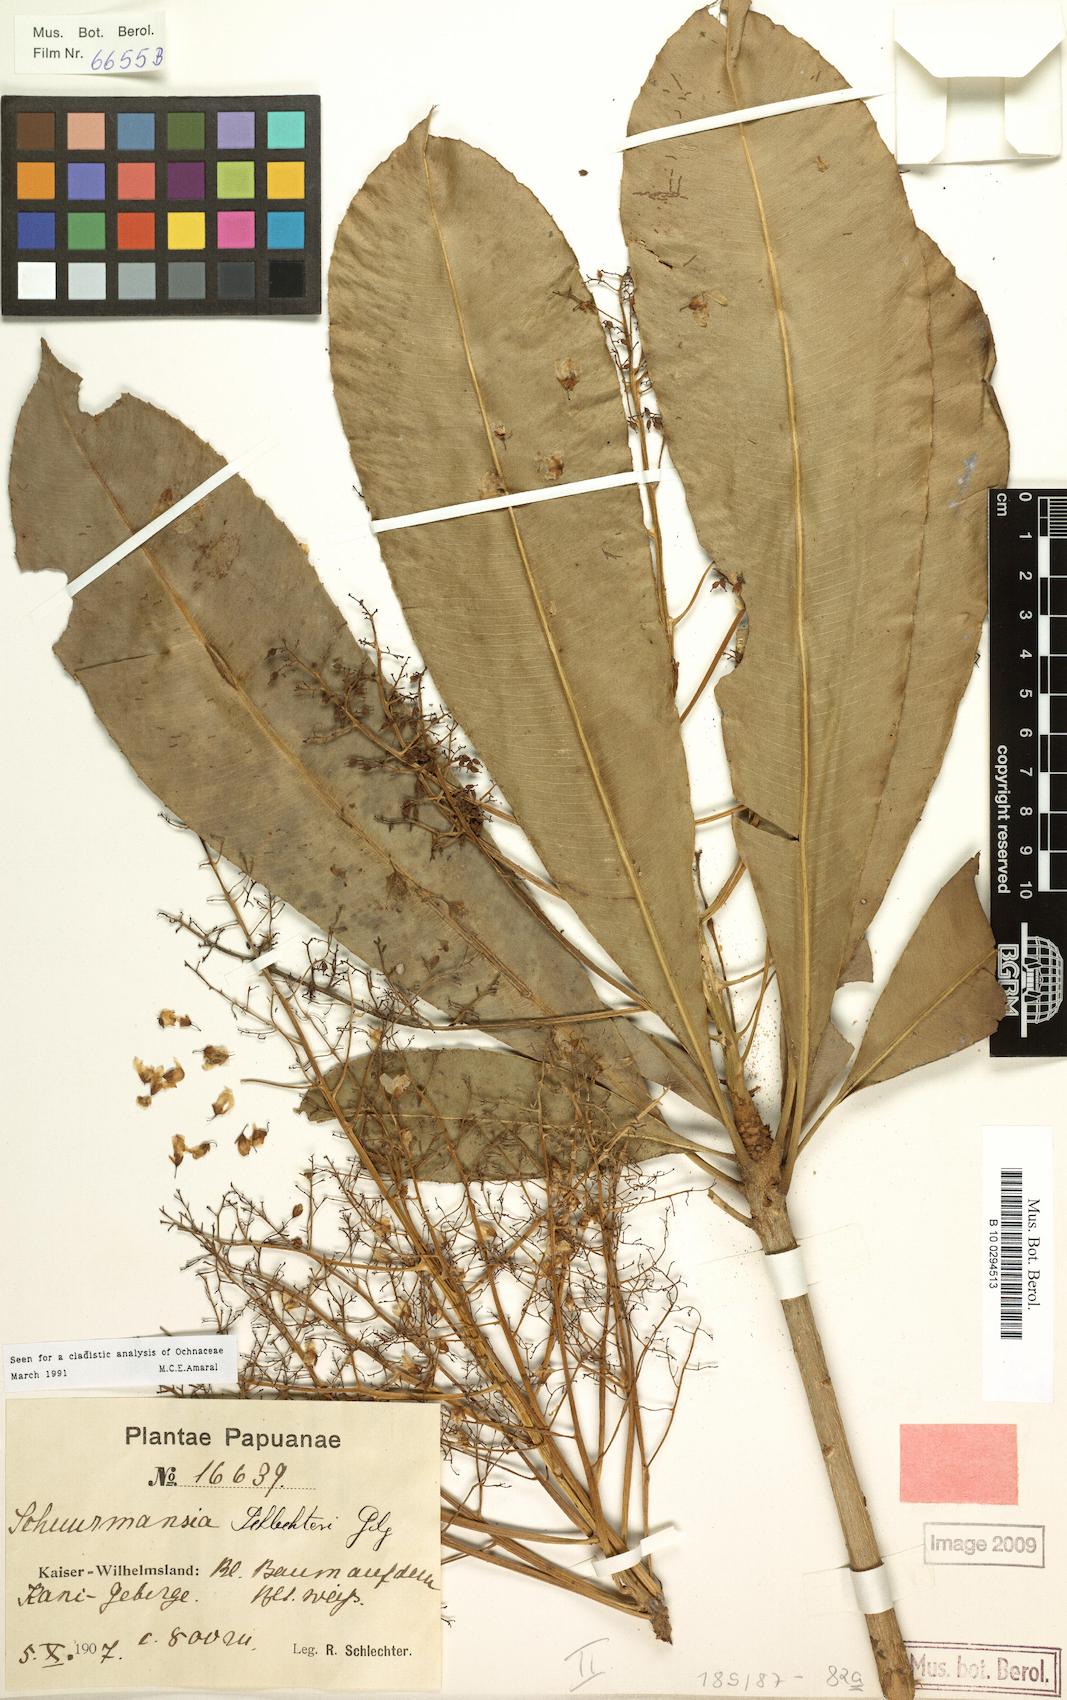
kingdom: Plantae
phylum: Tracheophyta
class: Magnoliopsida
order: Malpighiales
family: Ochnaceae
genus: Schuurmansia
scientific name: Schuurmansia henningsii
